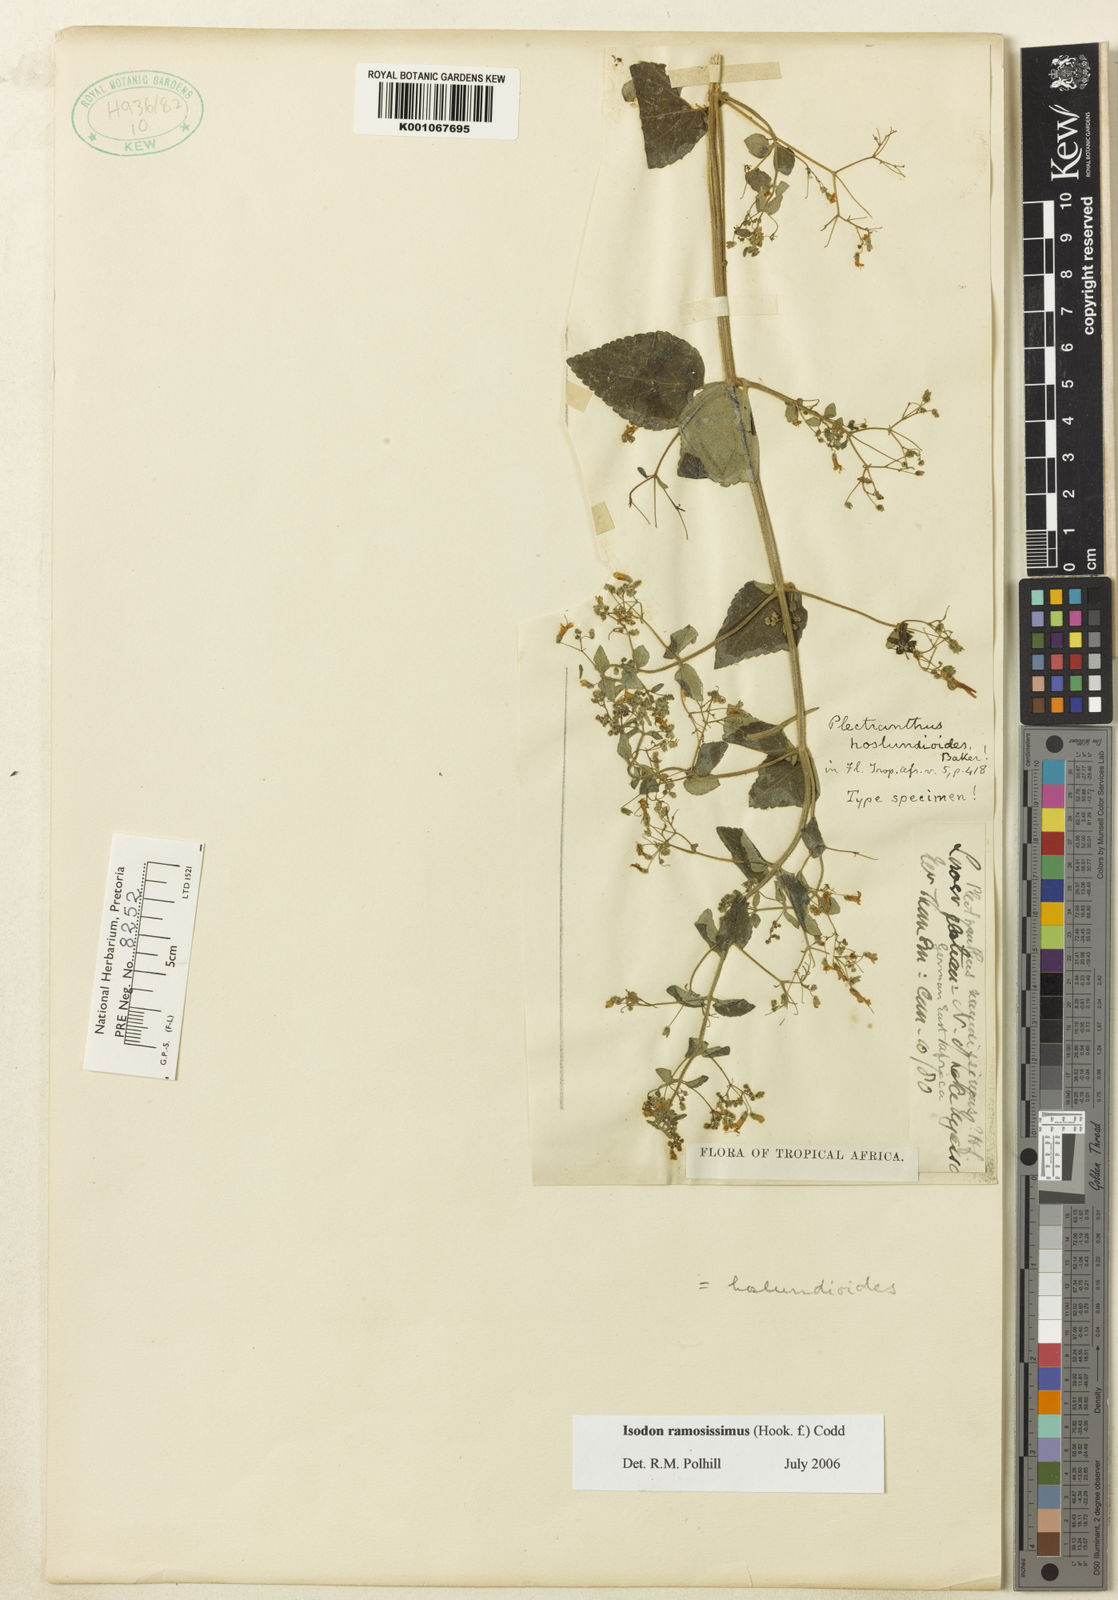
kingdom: Plantae
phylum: Tracheophyta
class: Magnoliopsida
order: Lamiales
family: Lamiaceae
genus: Isodon
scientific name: Isodon ramosissimus
